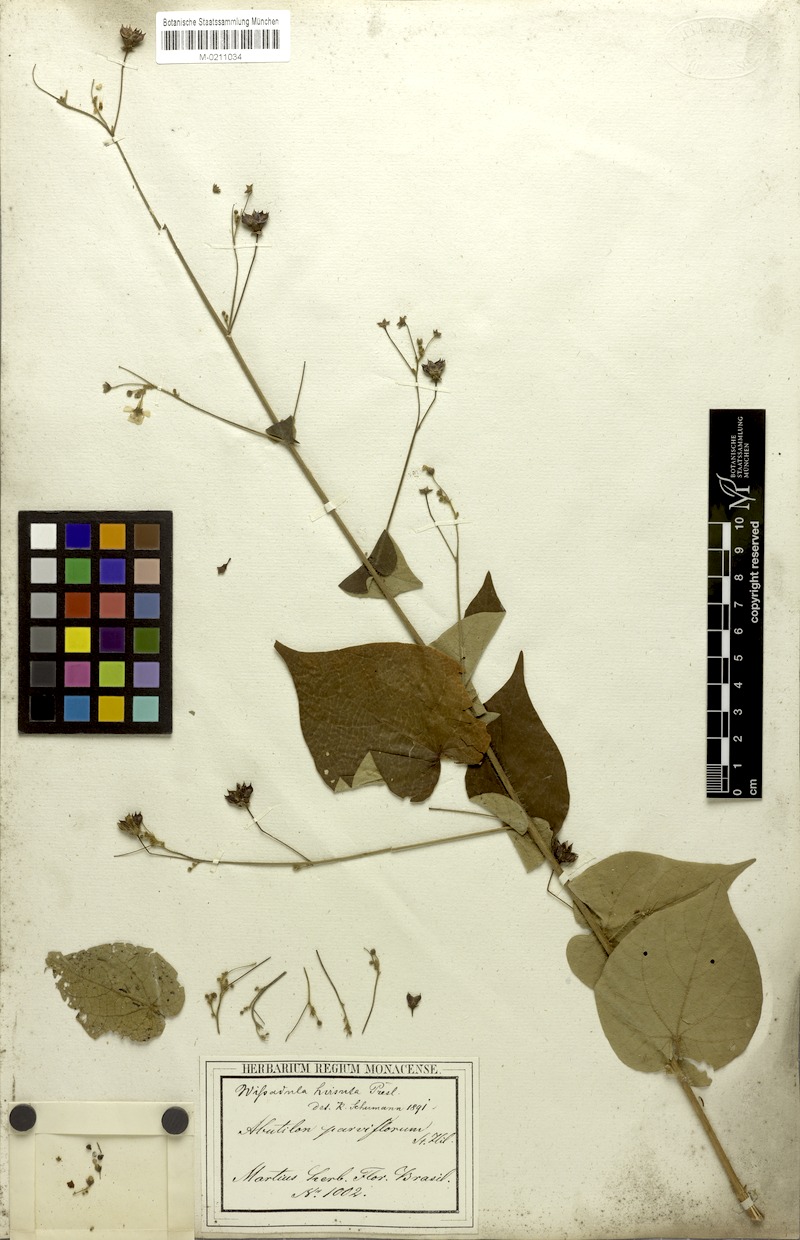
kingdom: Plantae
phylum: Tracheophyta
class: Magnoliopsida
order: Malvales
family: Malvaceae
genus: Wissadula
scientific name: Wissadula amplissima
